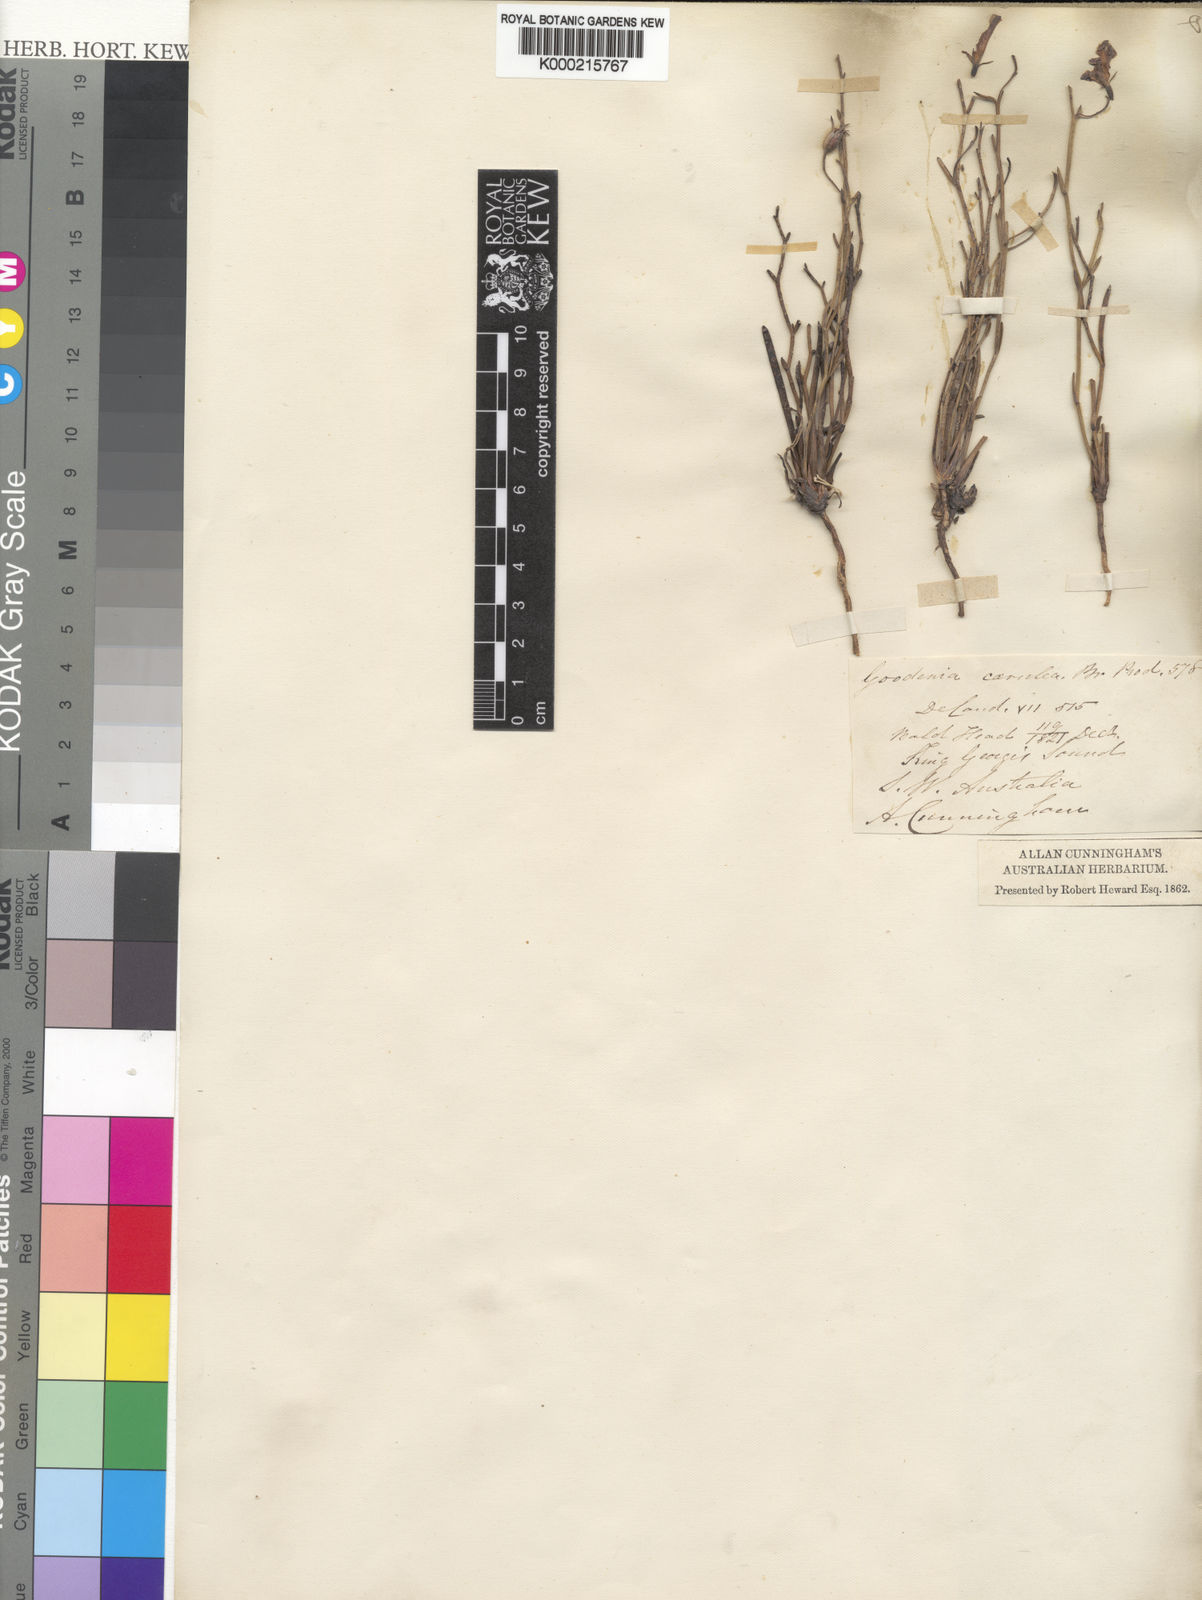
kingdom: Plantae
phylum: Tracheophyta
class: Magnoliopsida
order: Asterales
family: Goodeniaceae
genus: Goodenia
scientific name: Goodenia caerulea
